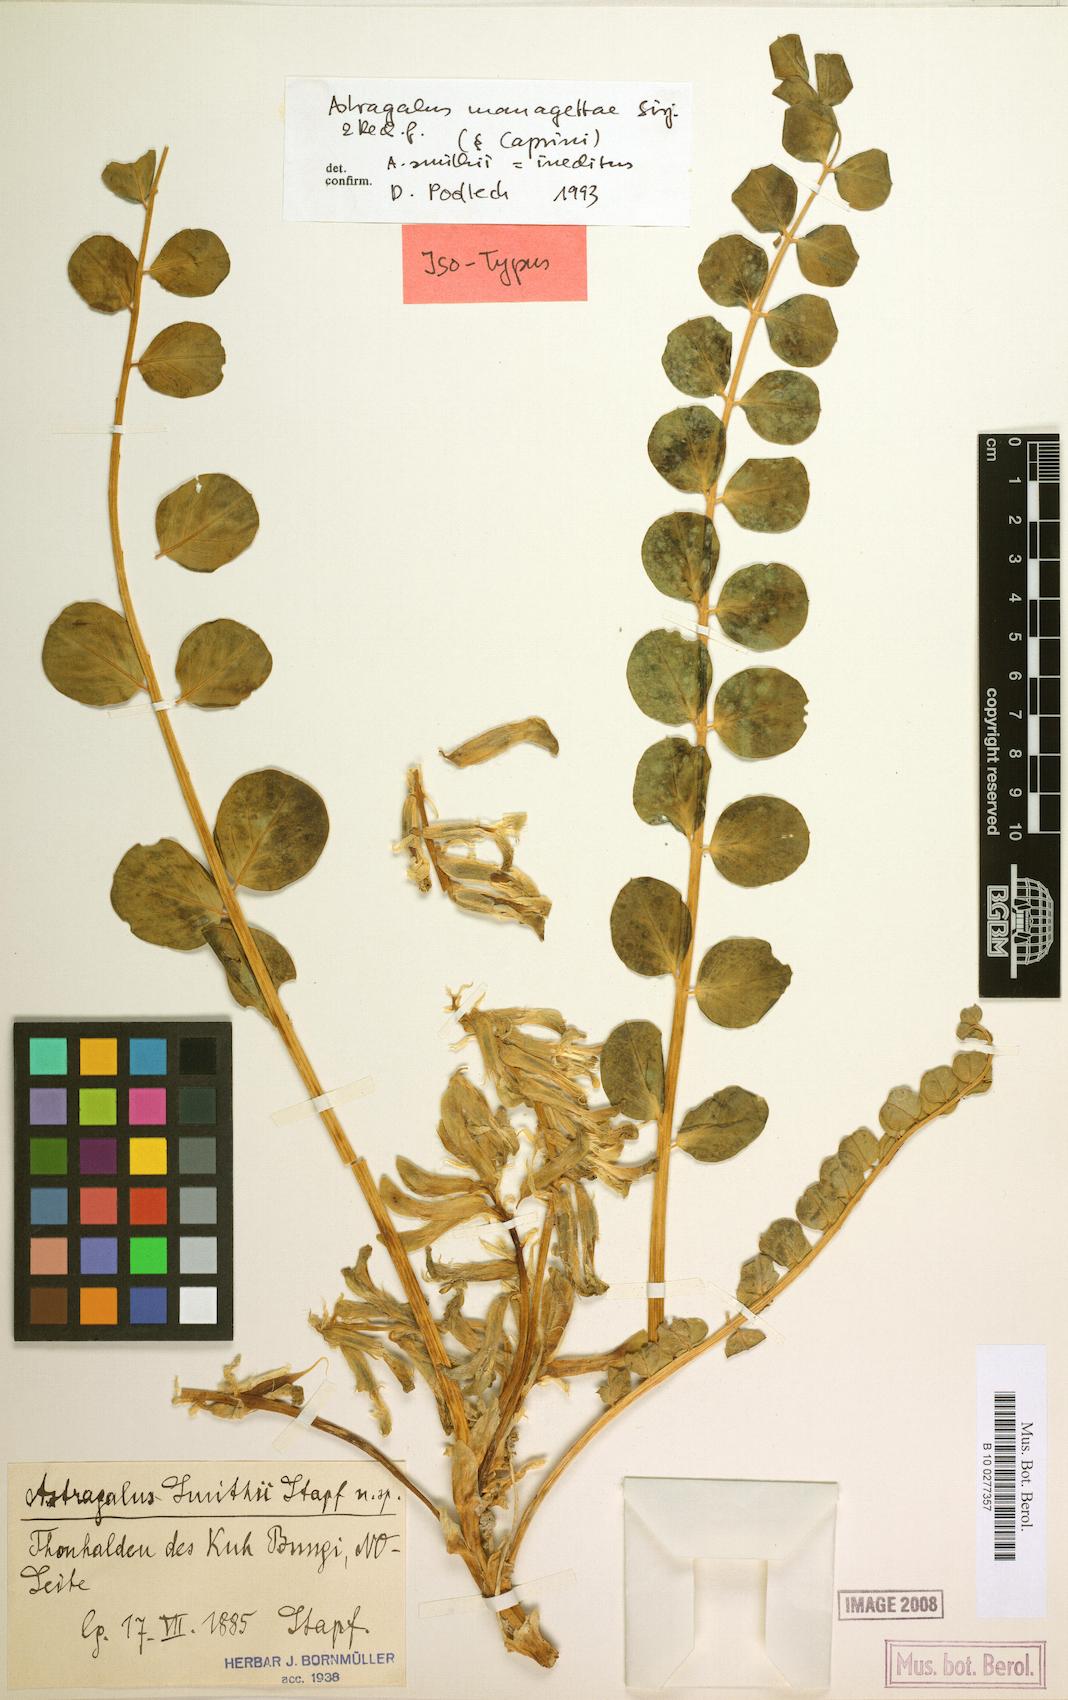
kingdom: Plantae
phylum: Tracheophyta
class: Magnoliopsida
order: Fabales
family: Fabaceae
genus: Astragalus
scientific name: Astragalus managettae
